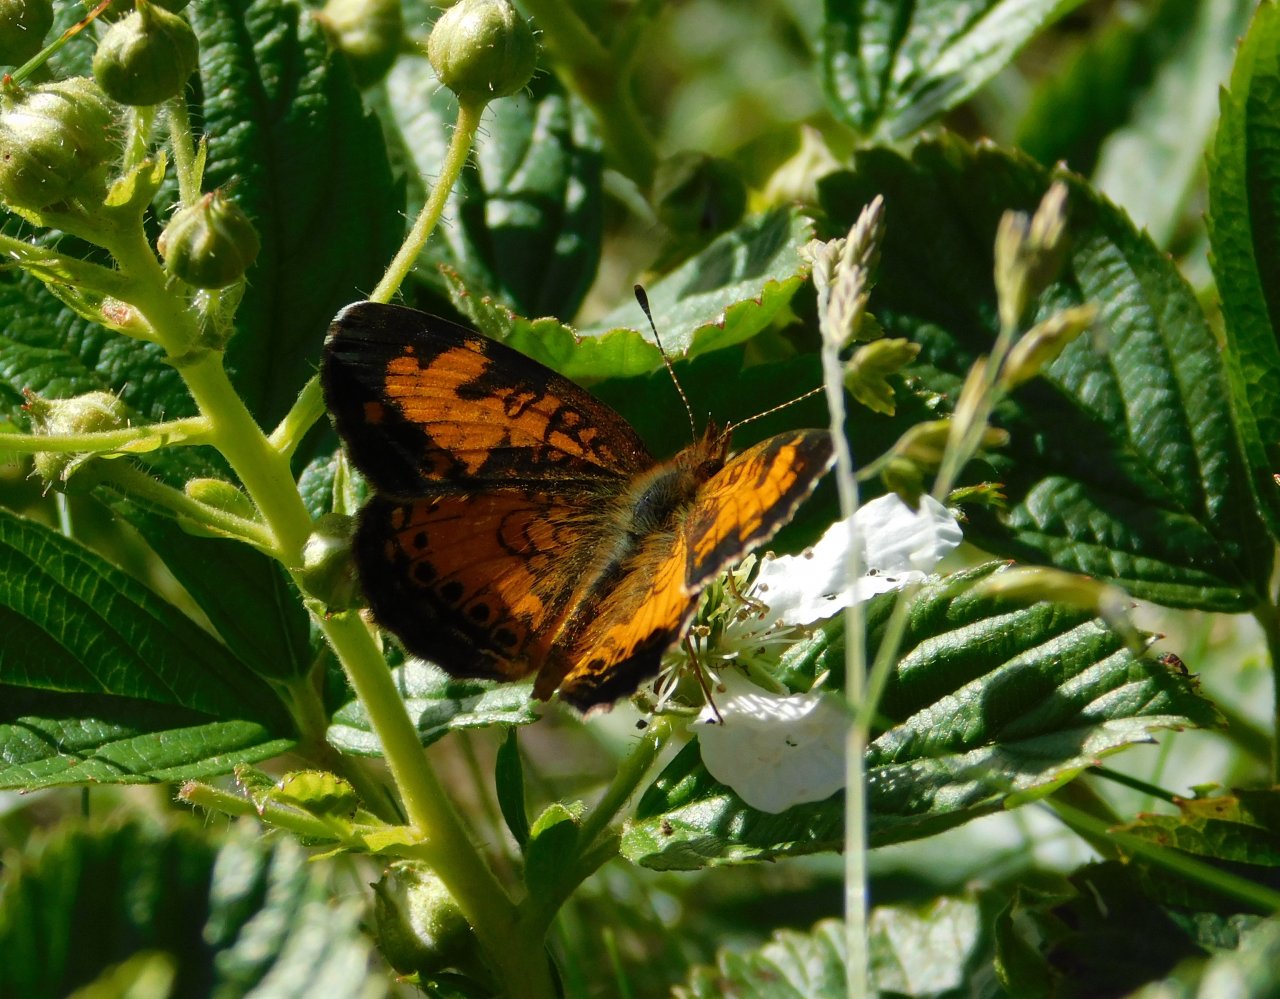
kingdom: Animalia
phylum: Arthropoda
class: Insecta
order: Lepidoptera
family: Nymphalidae
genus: Phyciodes
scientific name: Phyciodes tharos
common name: Northern Crescent
